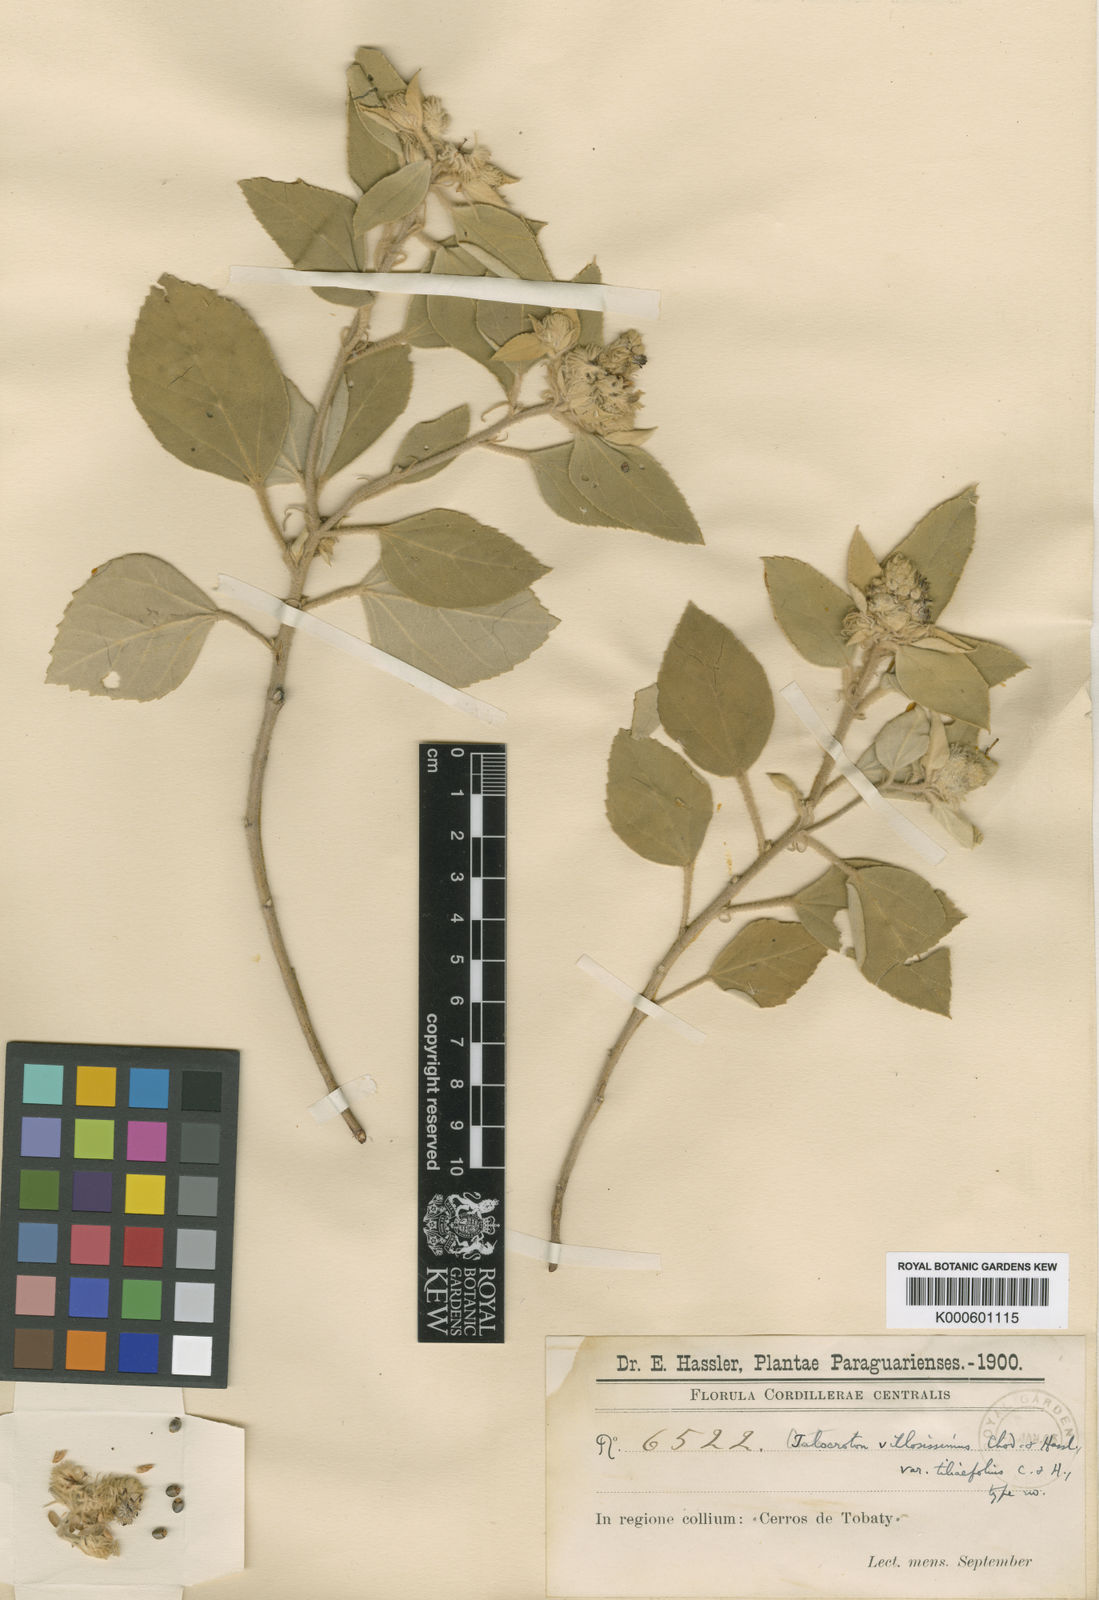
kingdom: Plantae
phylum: Tracheophyta
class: Magnoliopsida
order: Malpighiales
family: Euphorbiaceae
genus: Croton
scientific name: Croton villosissimus
